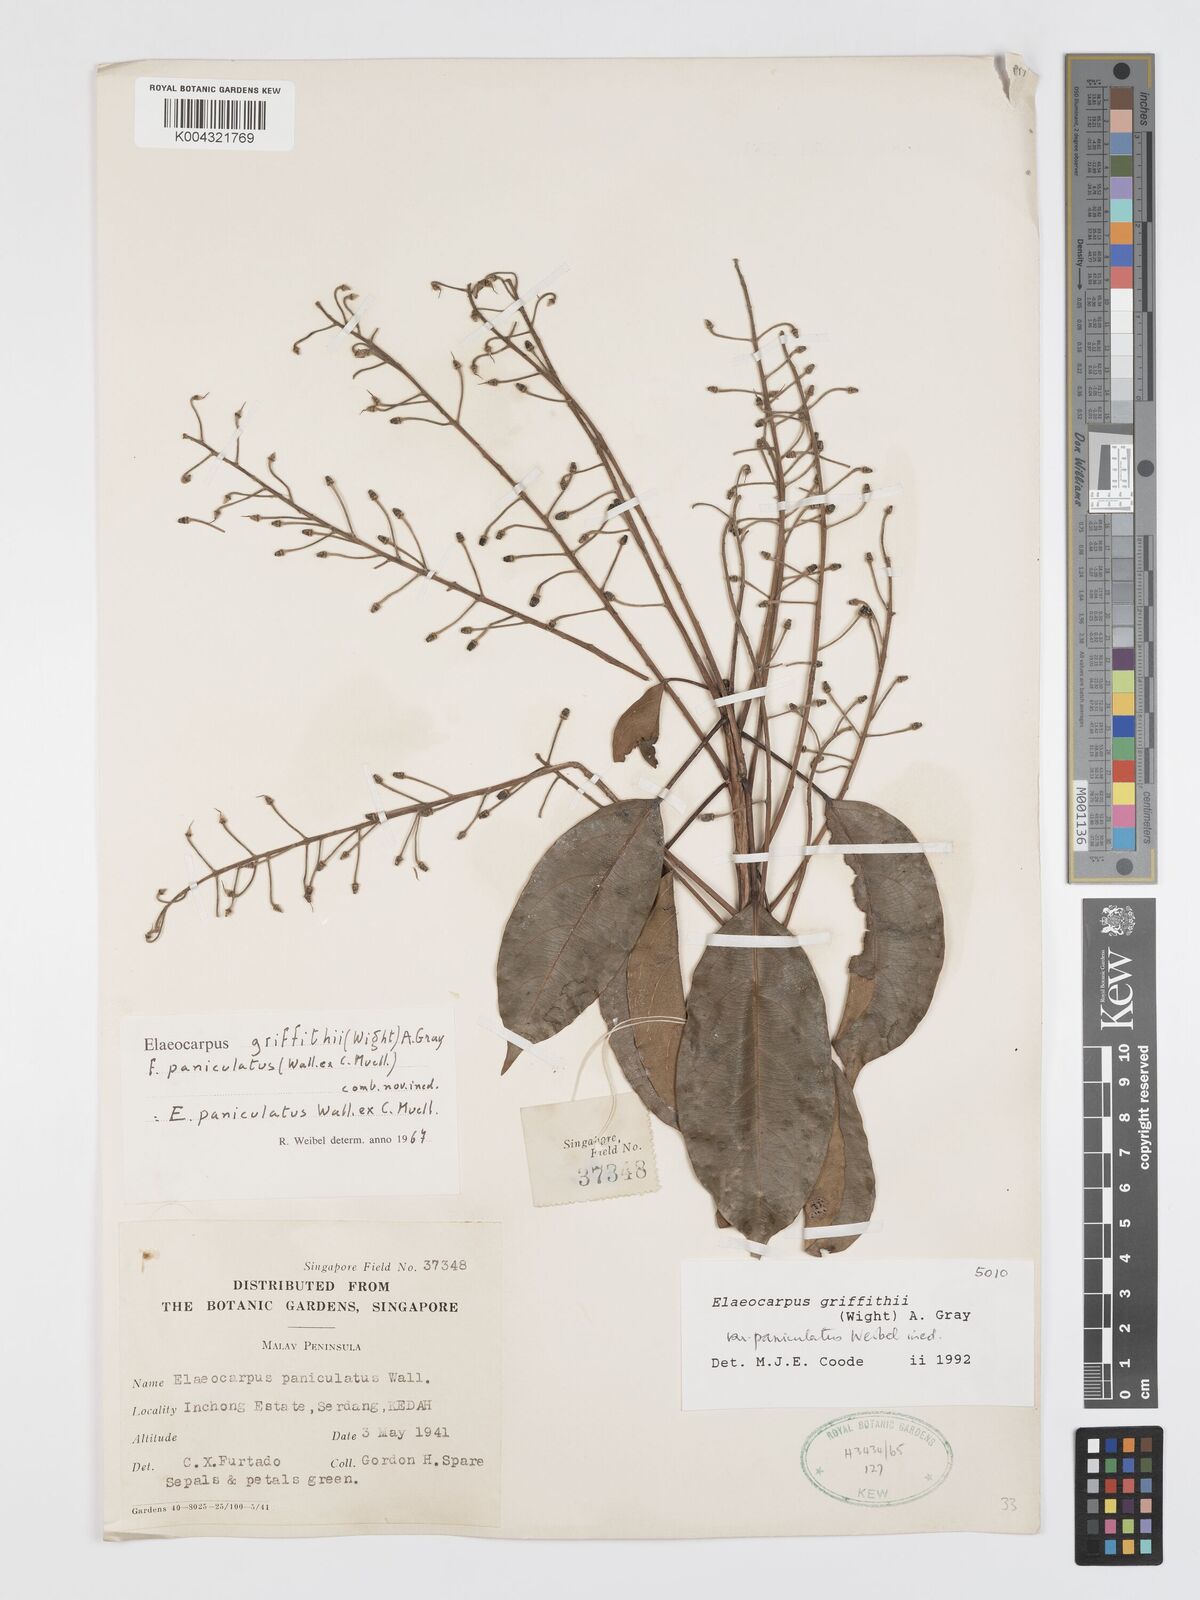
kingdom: Plantae
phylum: Tracheophyta
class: Magnoliopsida
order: Oxalidales
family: Elaeocarpaceae
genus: Elaeocarpus
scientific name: Elaeocarpus griffithii
